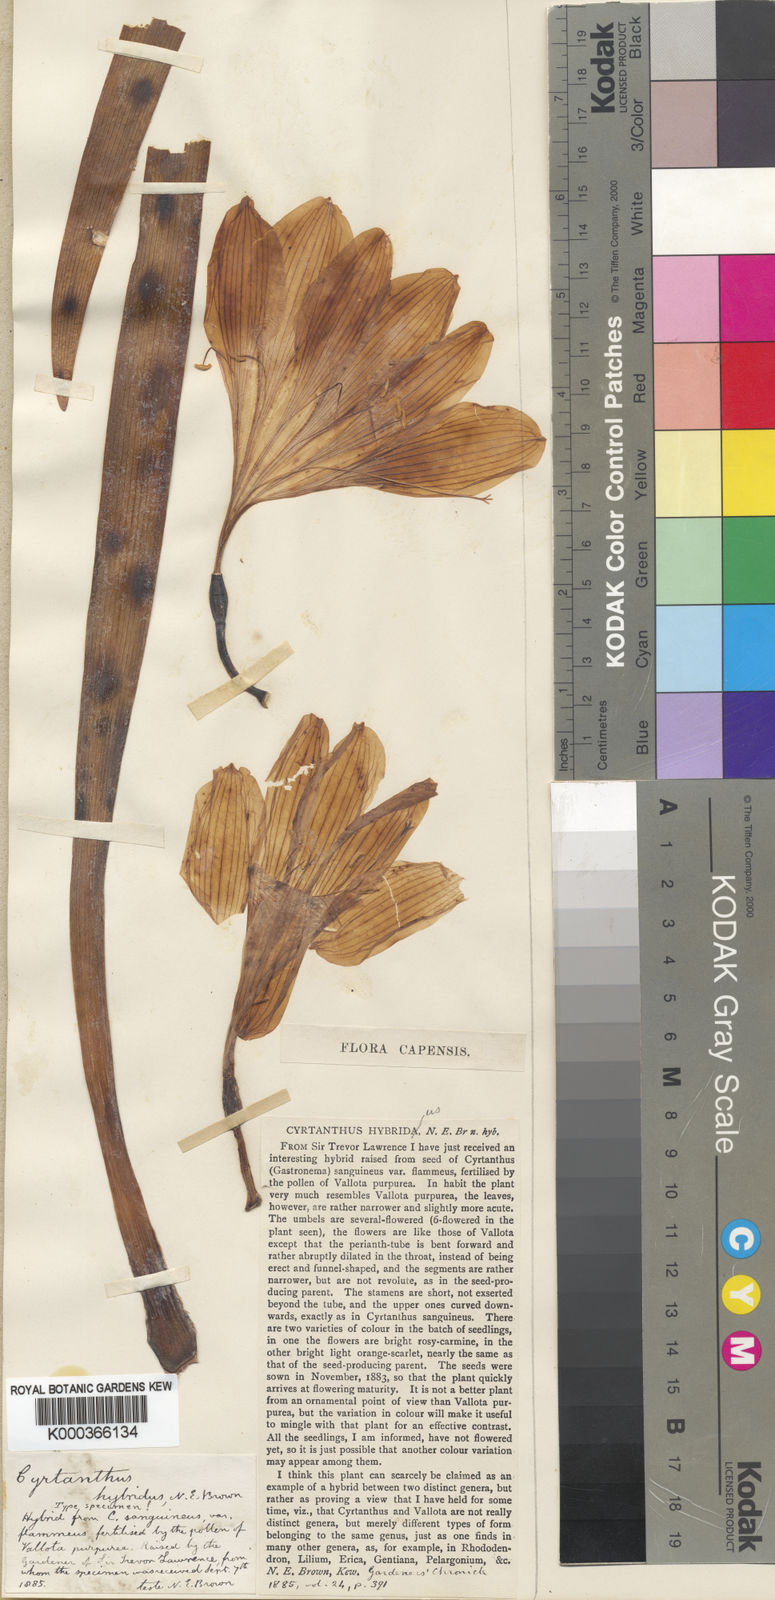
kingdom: Plantae
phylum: Tracheophyta
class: Liliopsida
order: Asparagales
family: Amaryllidaceae
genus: Cyrtanthus
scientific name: Cyrtanthus hybridus
